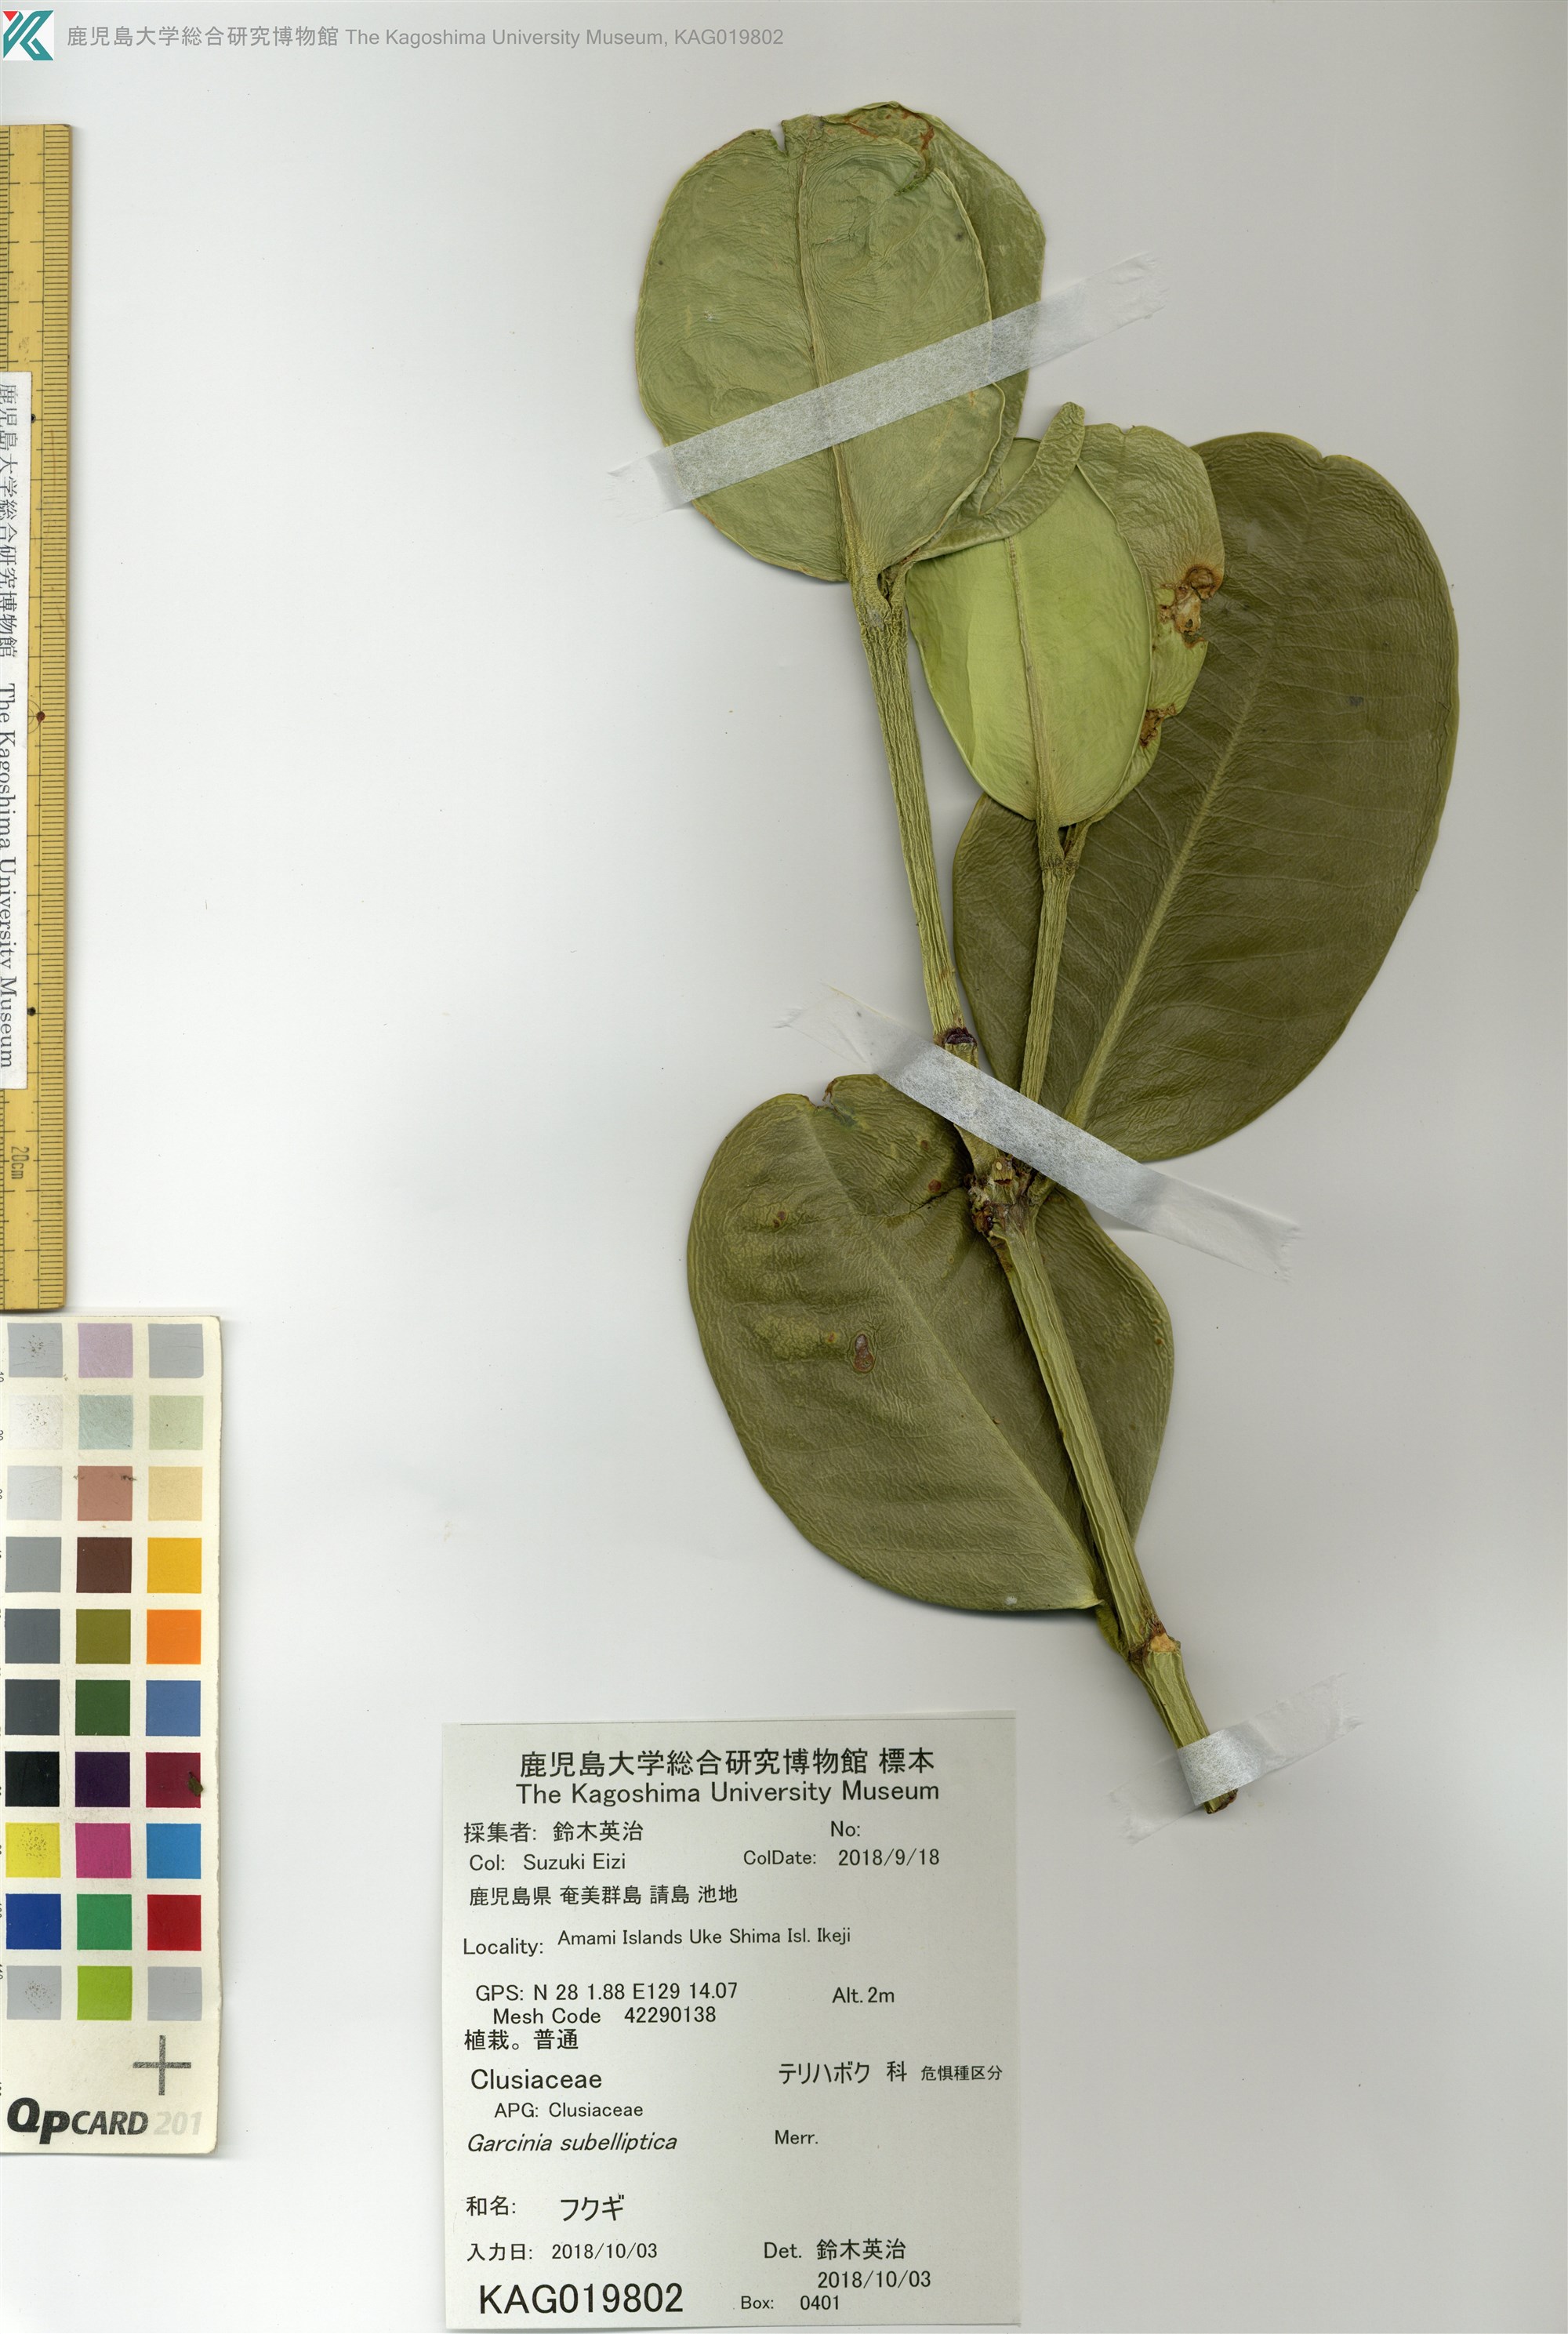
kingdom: Plantae
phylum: Tracheophyta
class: Magnoliopsida
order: Malpighiales
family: Clusiaceae
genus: Garcinia
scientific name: Garcinia subelliptica
